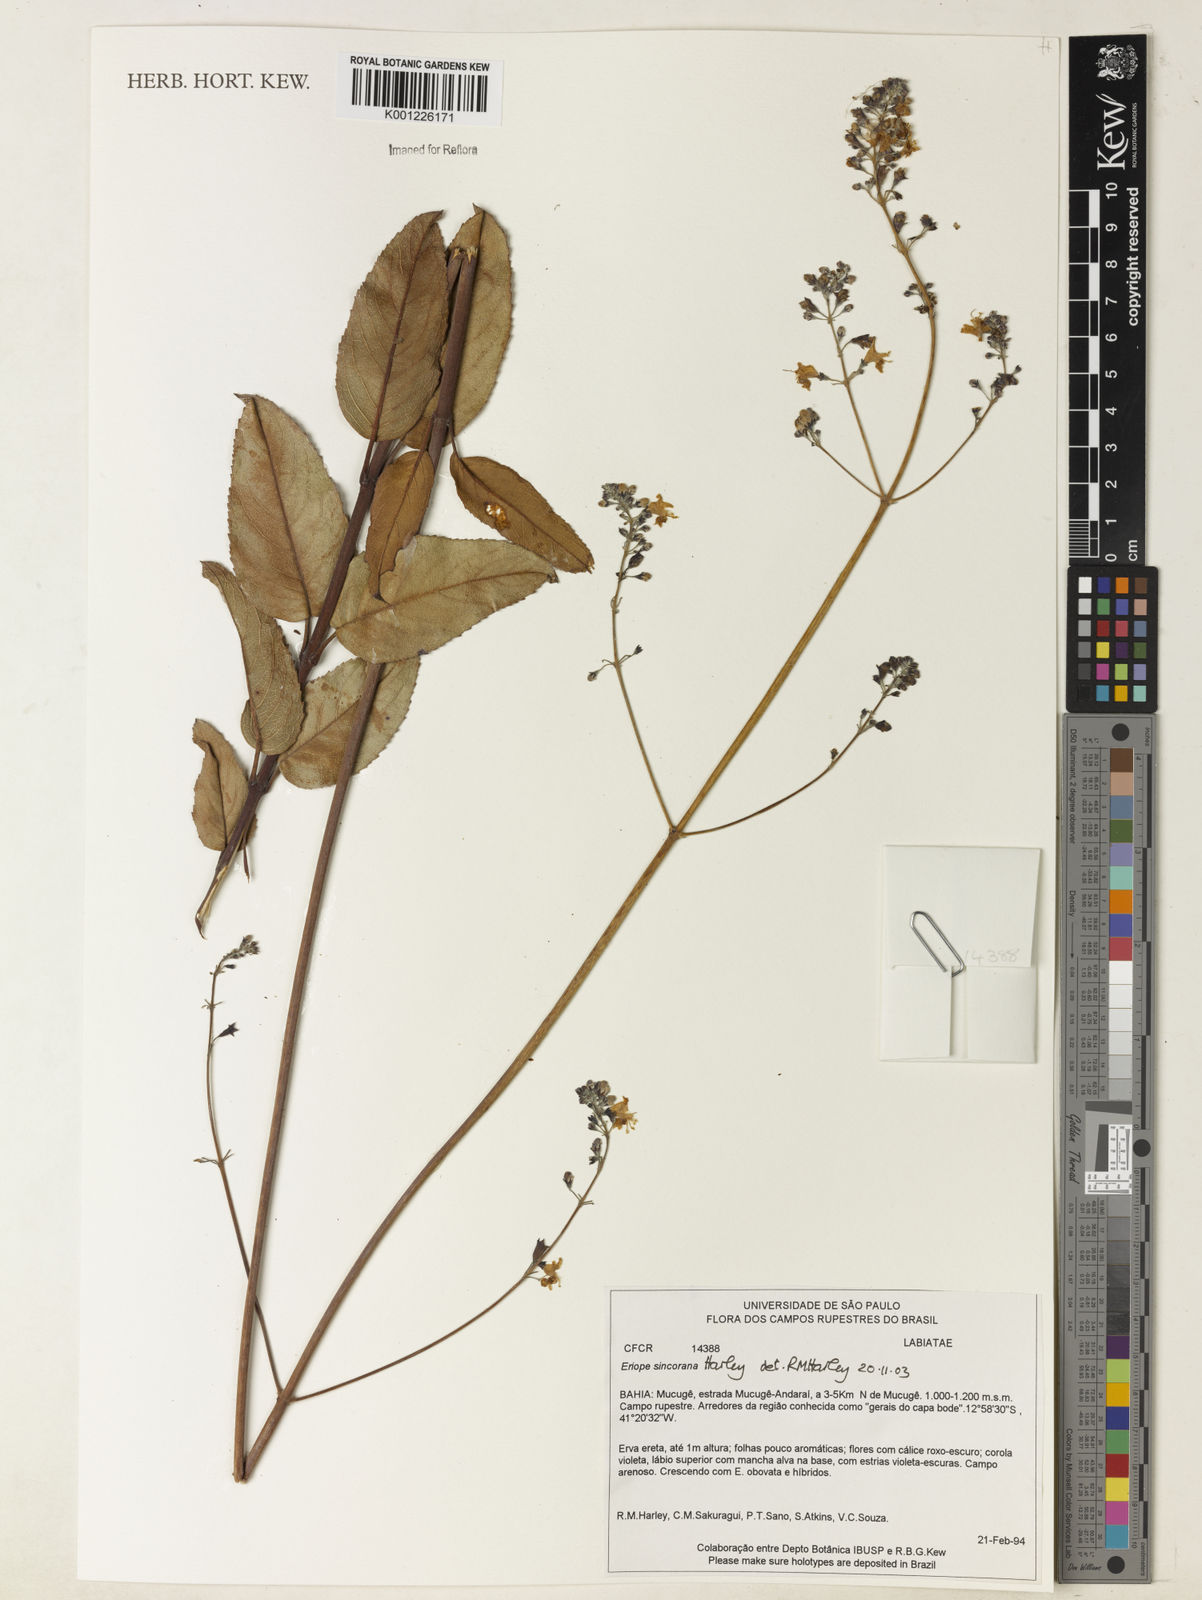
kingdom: Plantae
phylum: Tracheophyta
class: Magnoliopsida
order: Lamiales
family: Lamiaceae
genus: Eriope
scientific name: Eriope sincorana
